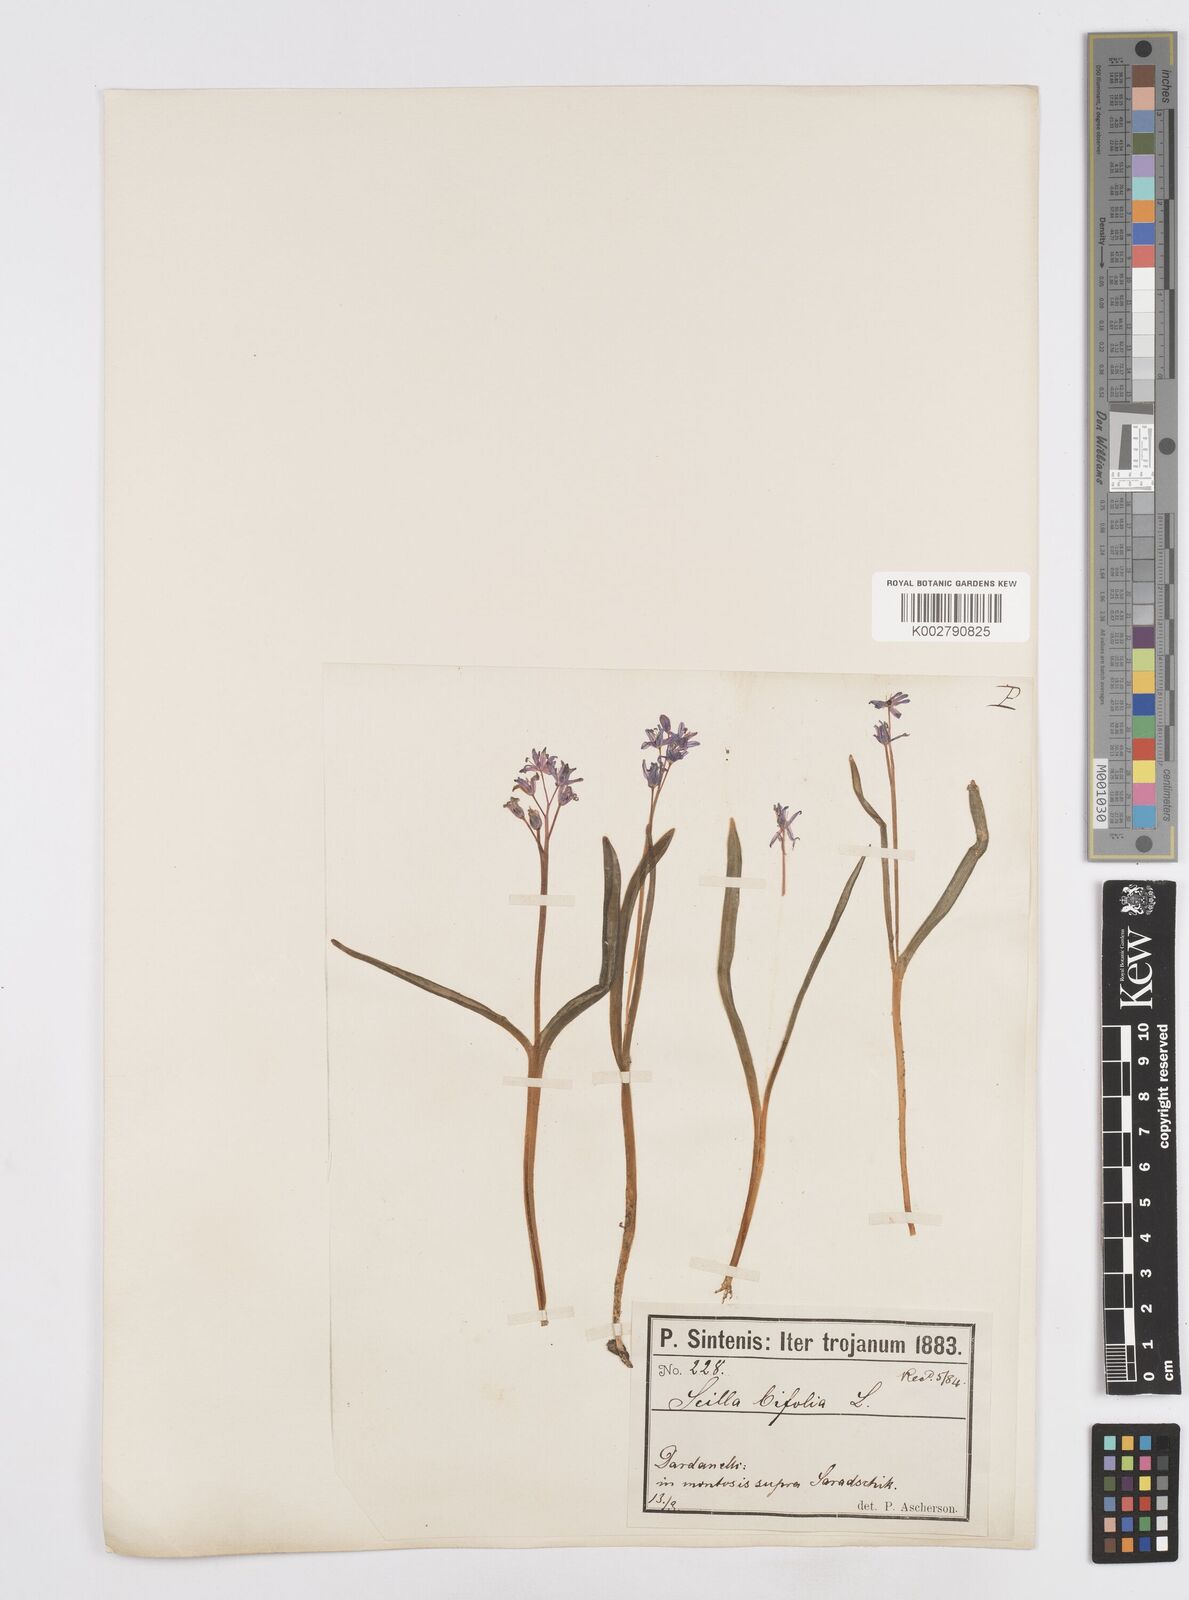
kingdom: Plantae
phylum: Tracheophyta
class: Liliopsida
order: Asparagales
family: Asparagaceae
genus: Scilla
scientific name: Scilla bifolia
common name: Alpine squill
